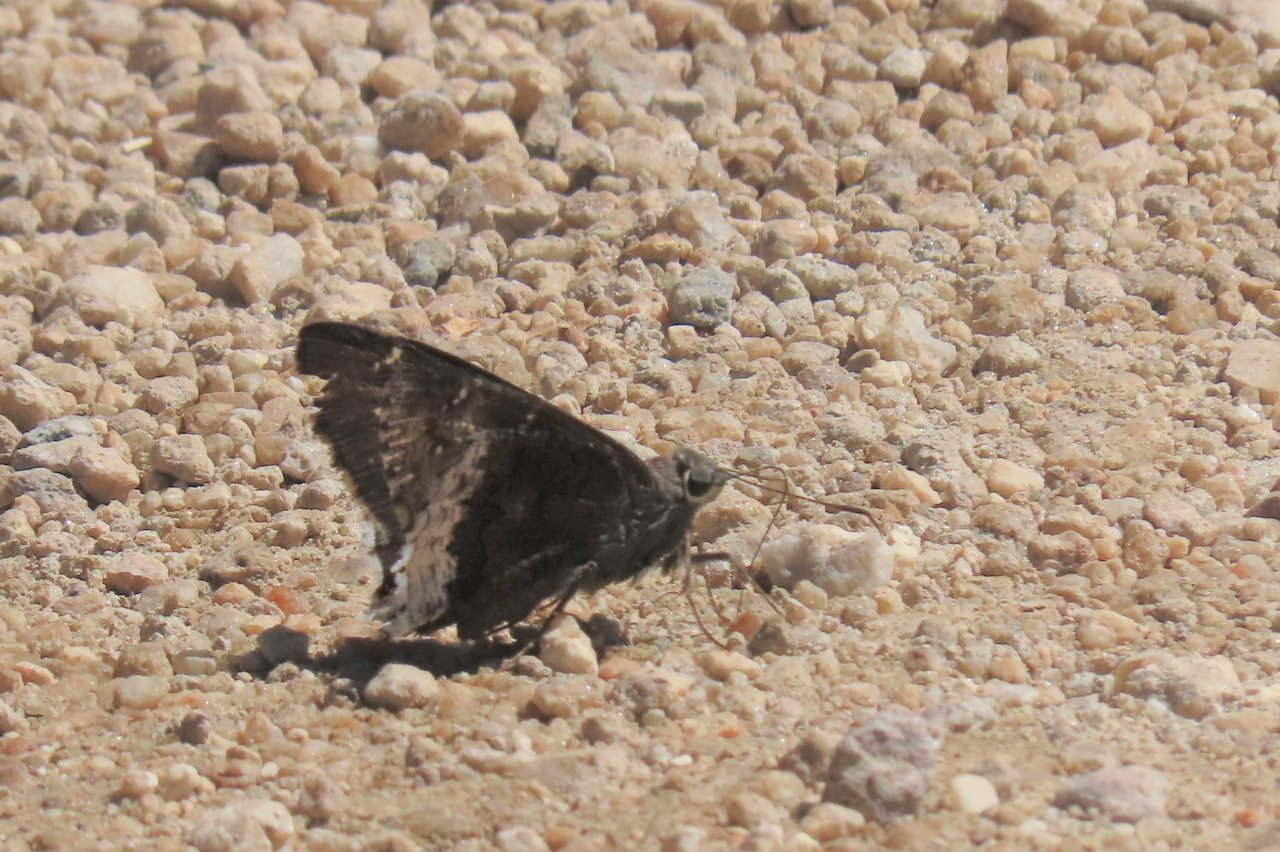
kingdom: Animalia
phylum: Arthropoda
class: Insecta
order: Lepidoptera
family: Hesperiidae
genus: Achalarus
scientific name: Achalarus casica
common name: Desert Cloudywing
